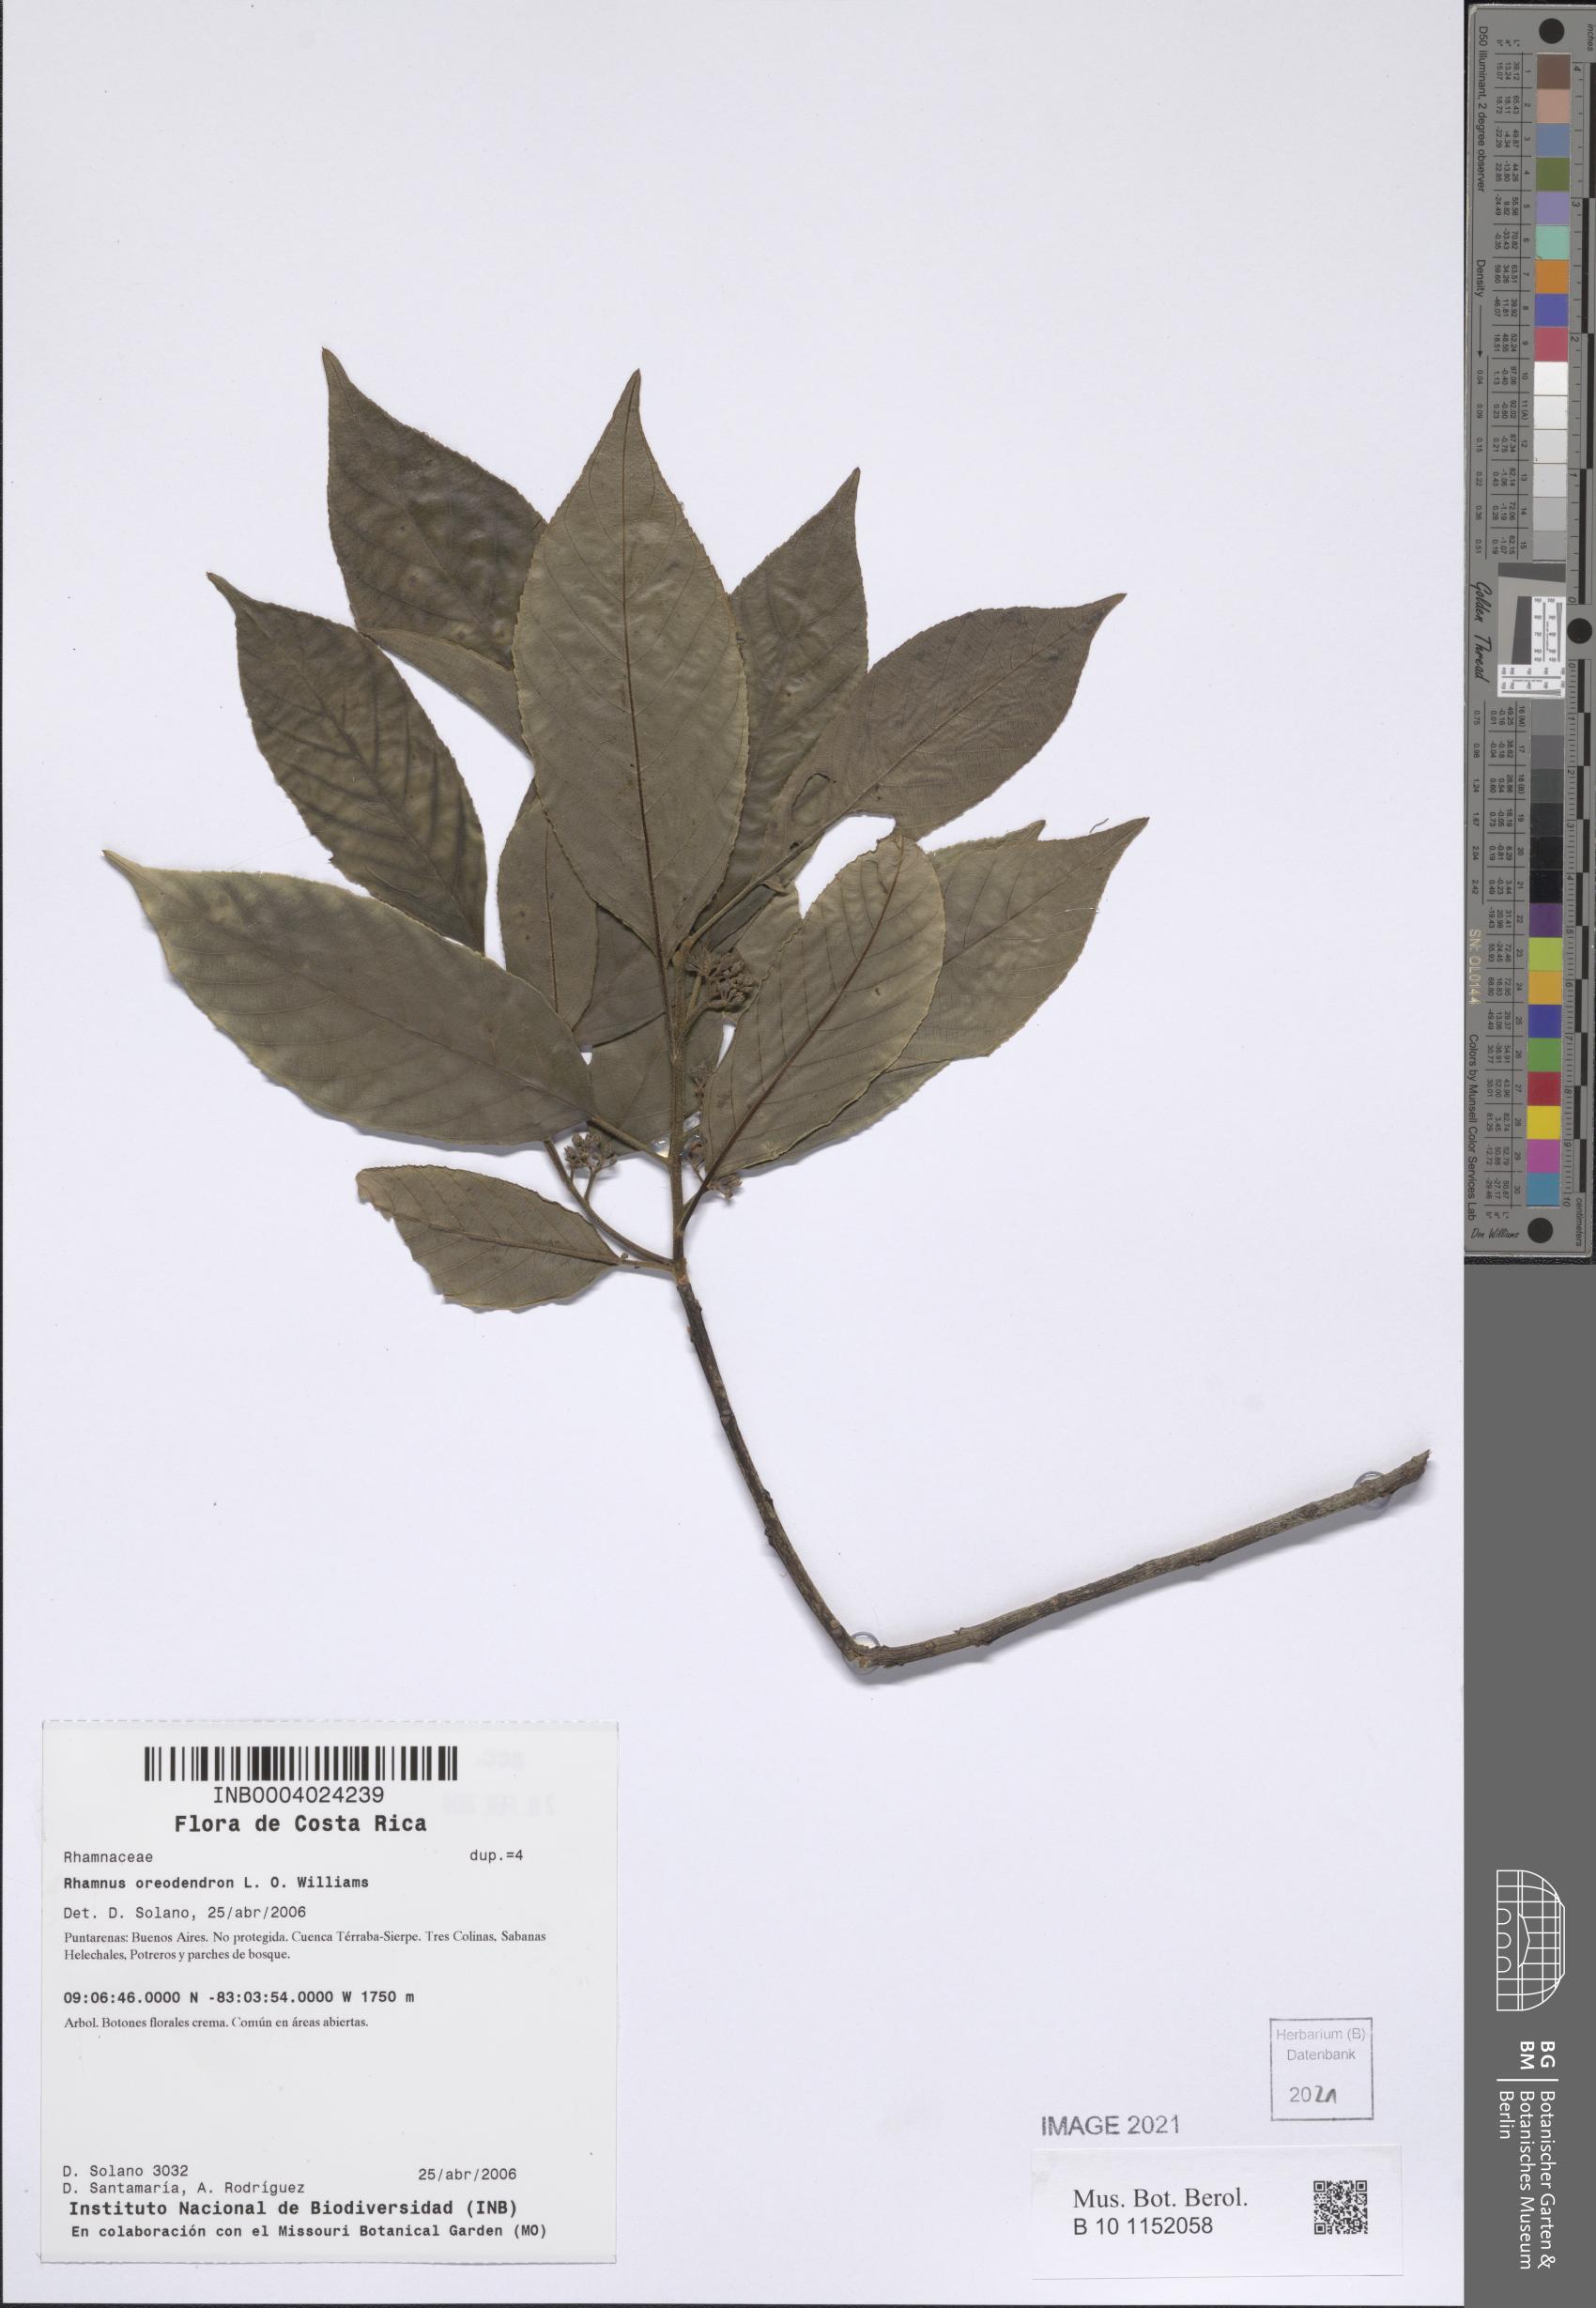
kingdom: Plantae
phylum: Tracheophyta
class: Magnoliopsida
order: Rosales
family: Rhamnaceae
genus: Frangula
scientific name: Frangula pendula
